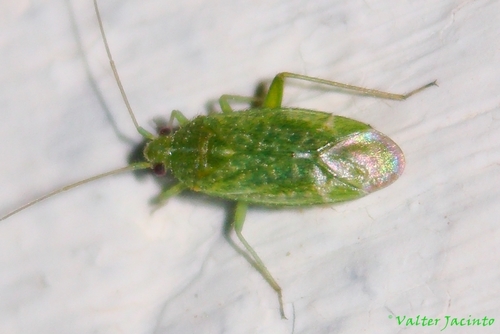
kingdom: Animalia
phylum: Arthropoda
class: Insecta
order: Hemiptera
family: Miridae
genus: Orthotylus
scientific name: Orthotylus flavosparsus
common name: Plant bug
